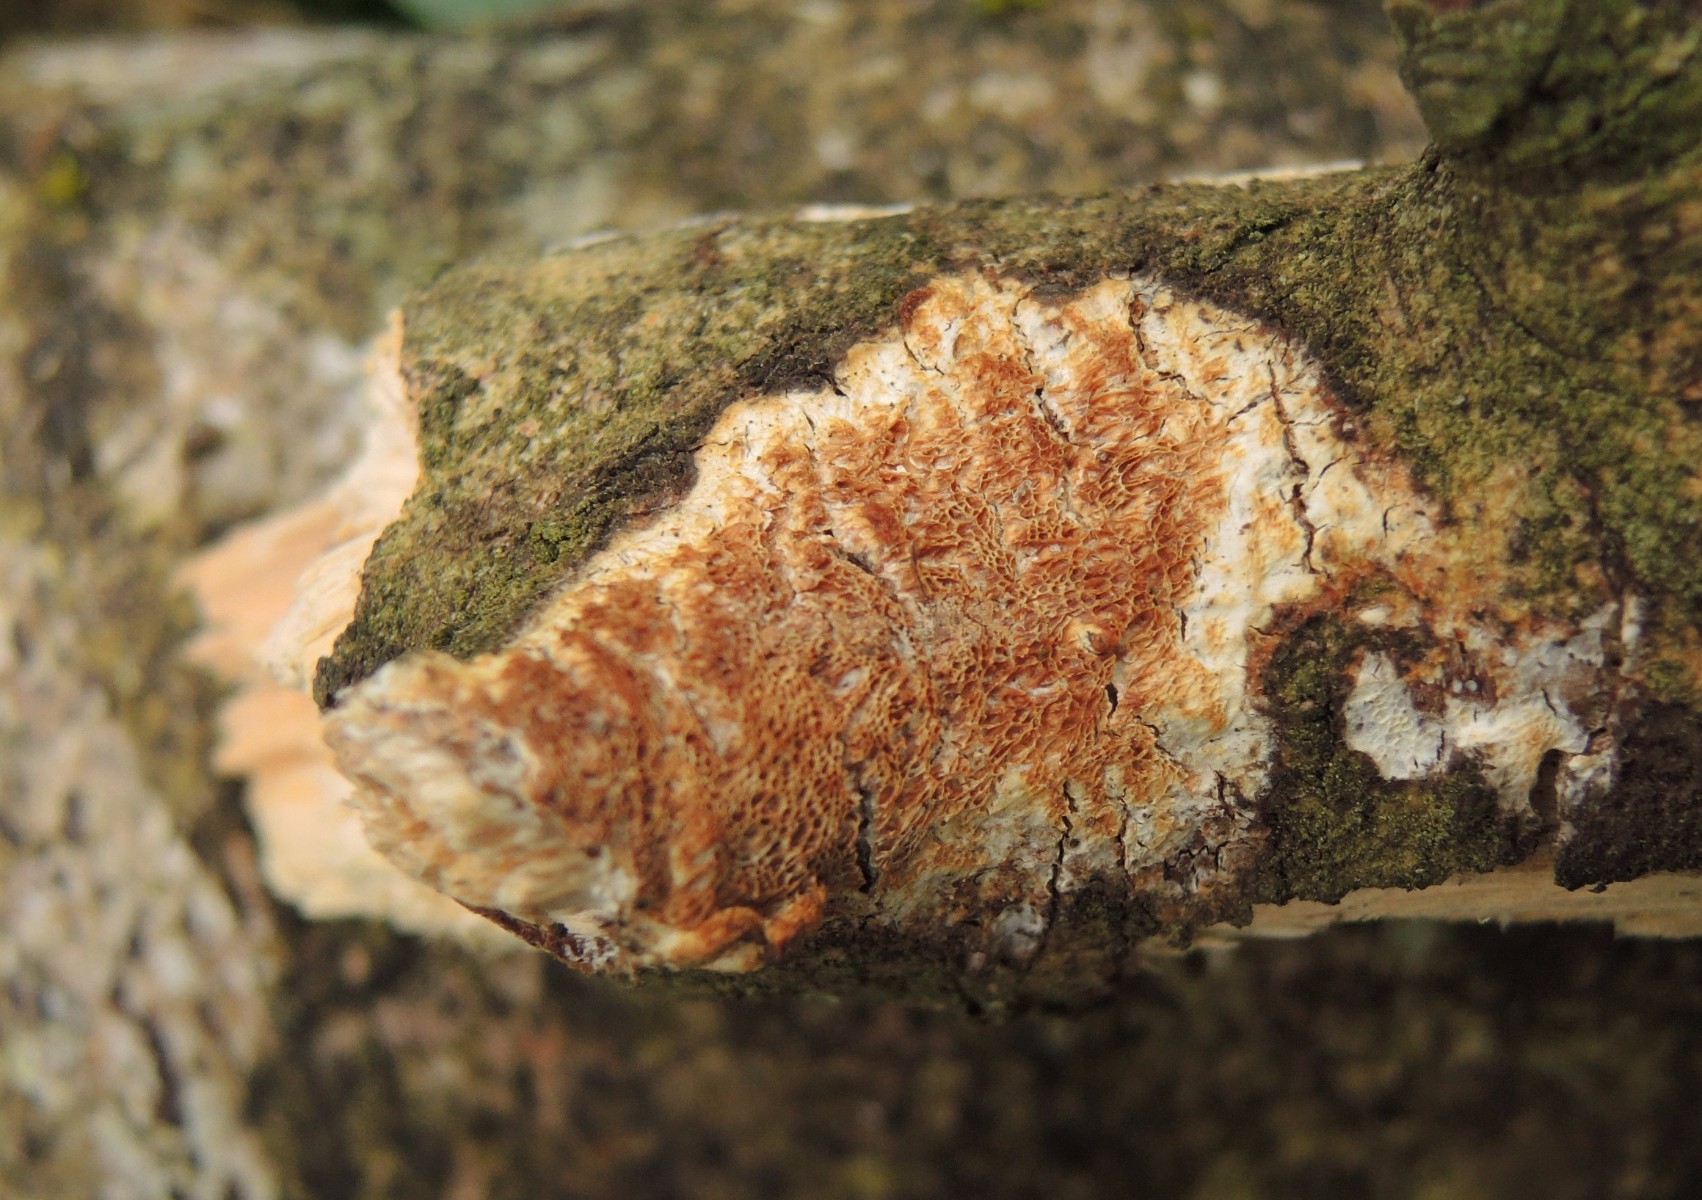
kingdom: Fungi
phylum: Basidiomycota
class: Agaricomycetes
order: Polyporales
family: Irpicaceae
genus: Resiniporus
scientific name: Resiniporus resinascens
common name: trist pastelporesvamp
